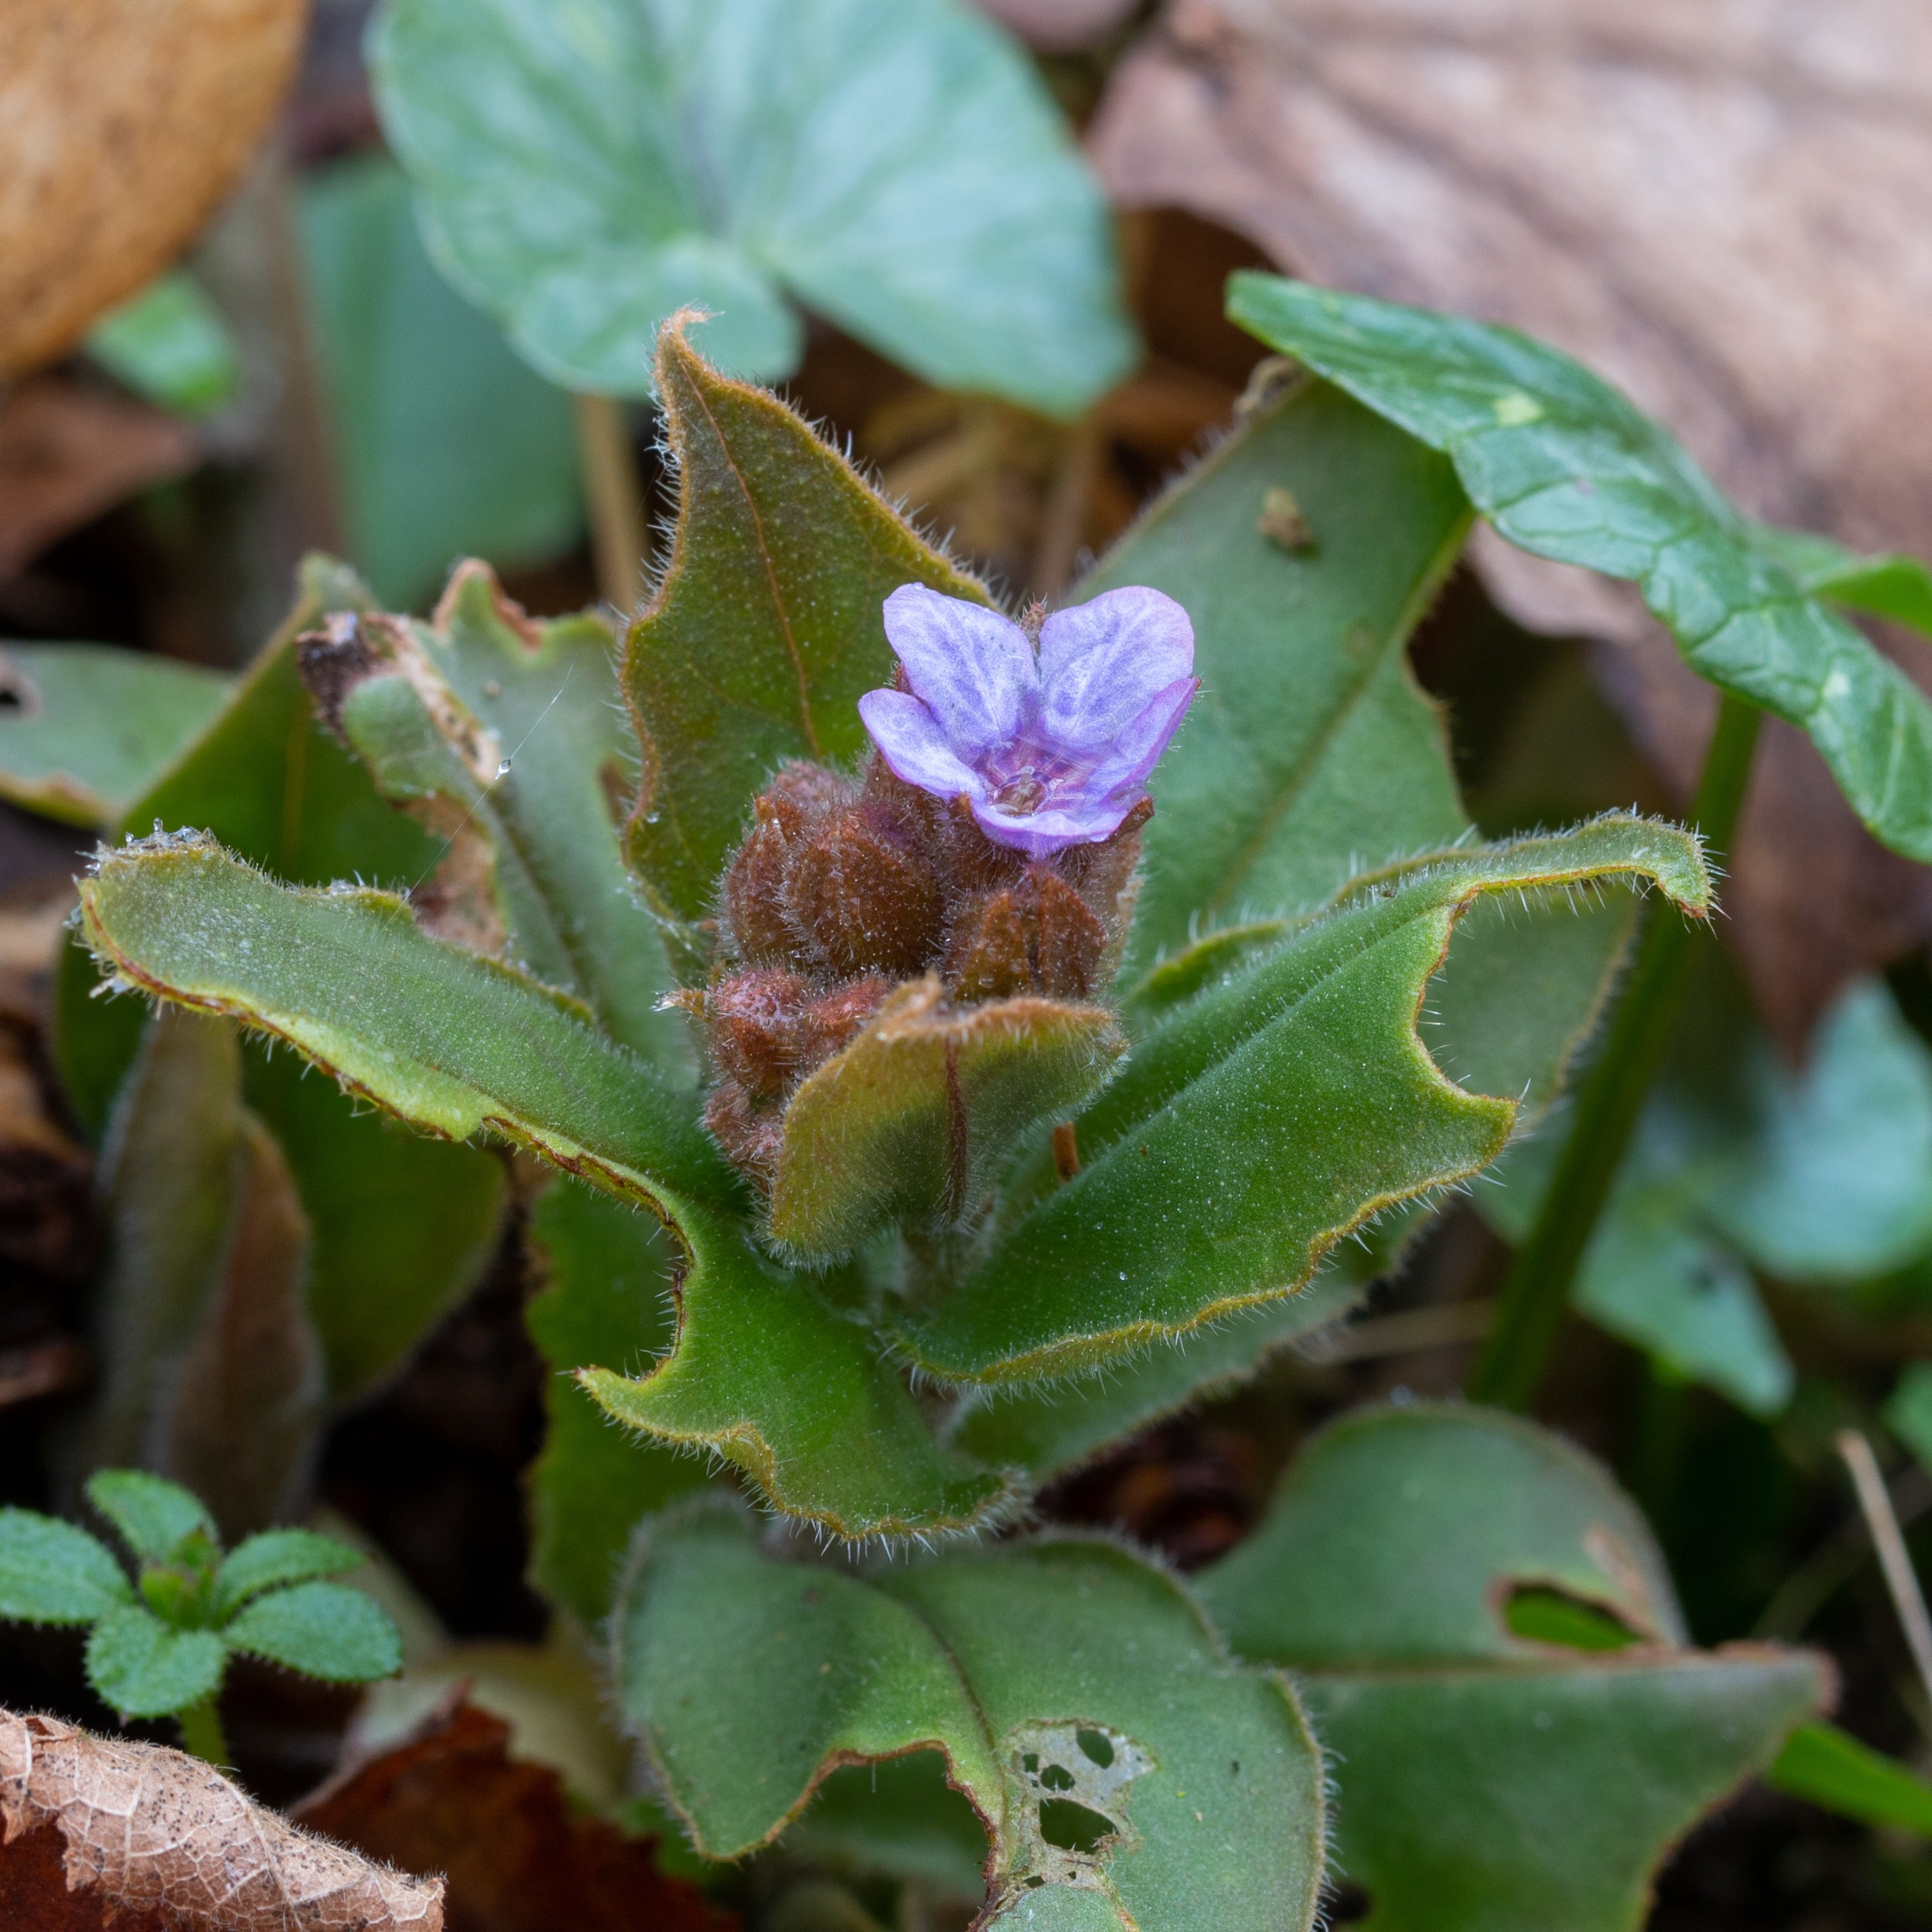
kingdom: Plantae
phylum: Tracheophyta
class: Magnoliopsida
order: Boraginales
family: Boraginaceae
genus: Pulmonaria
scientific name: Pulmonaria obscura
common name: Almindelig lungeurt
